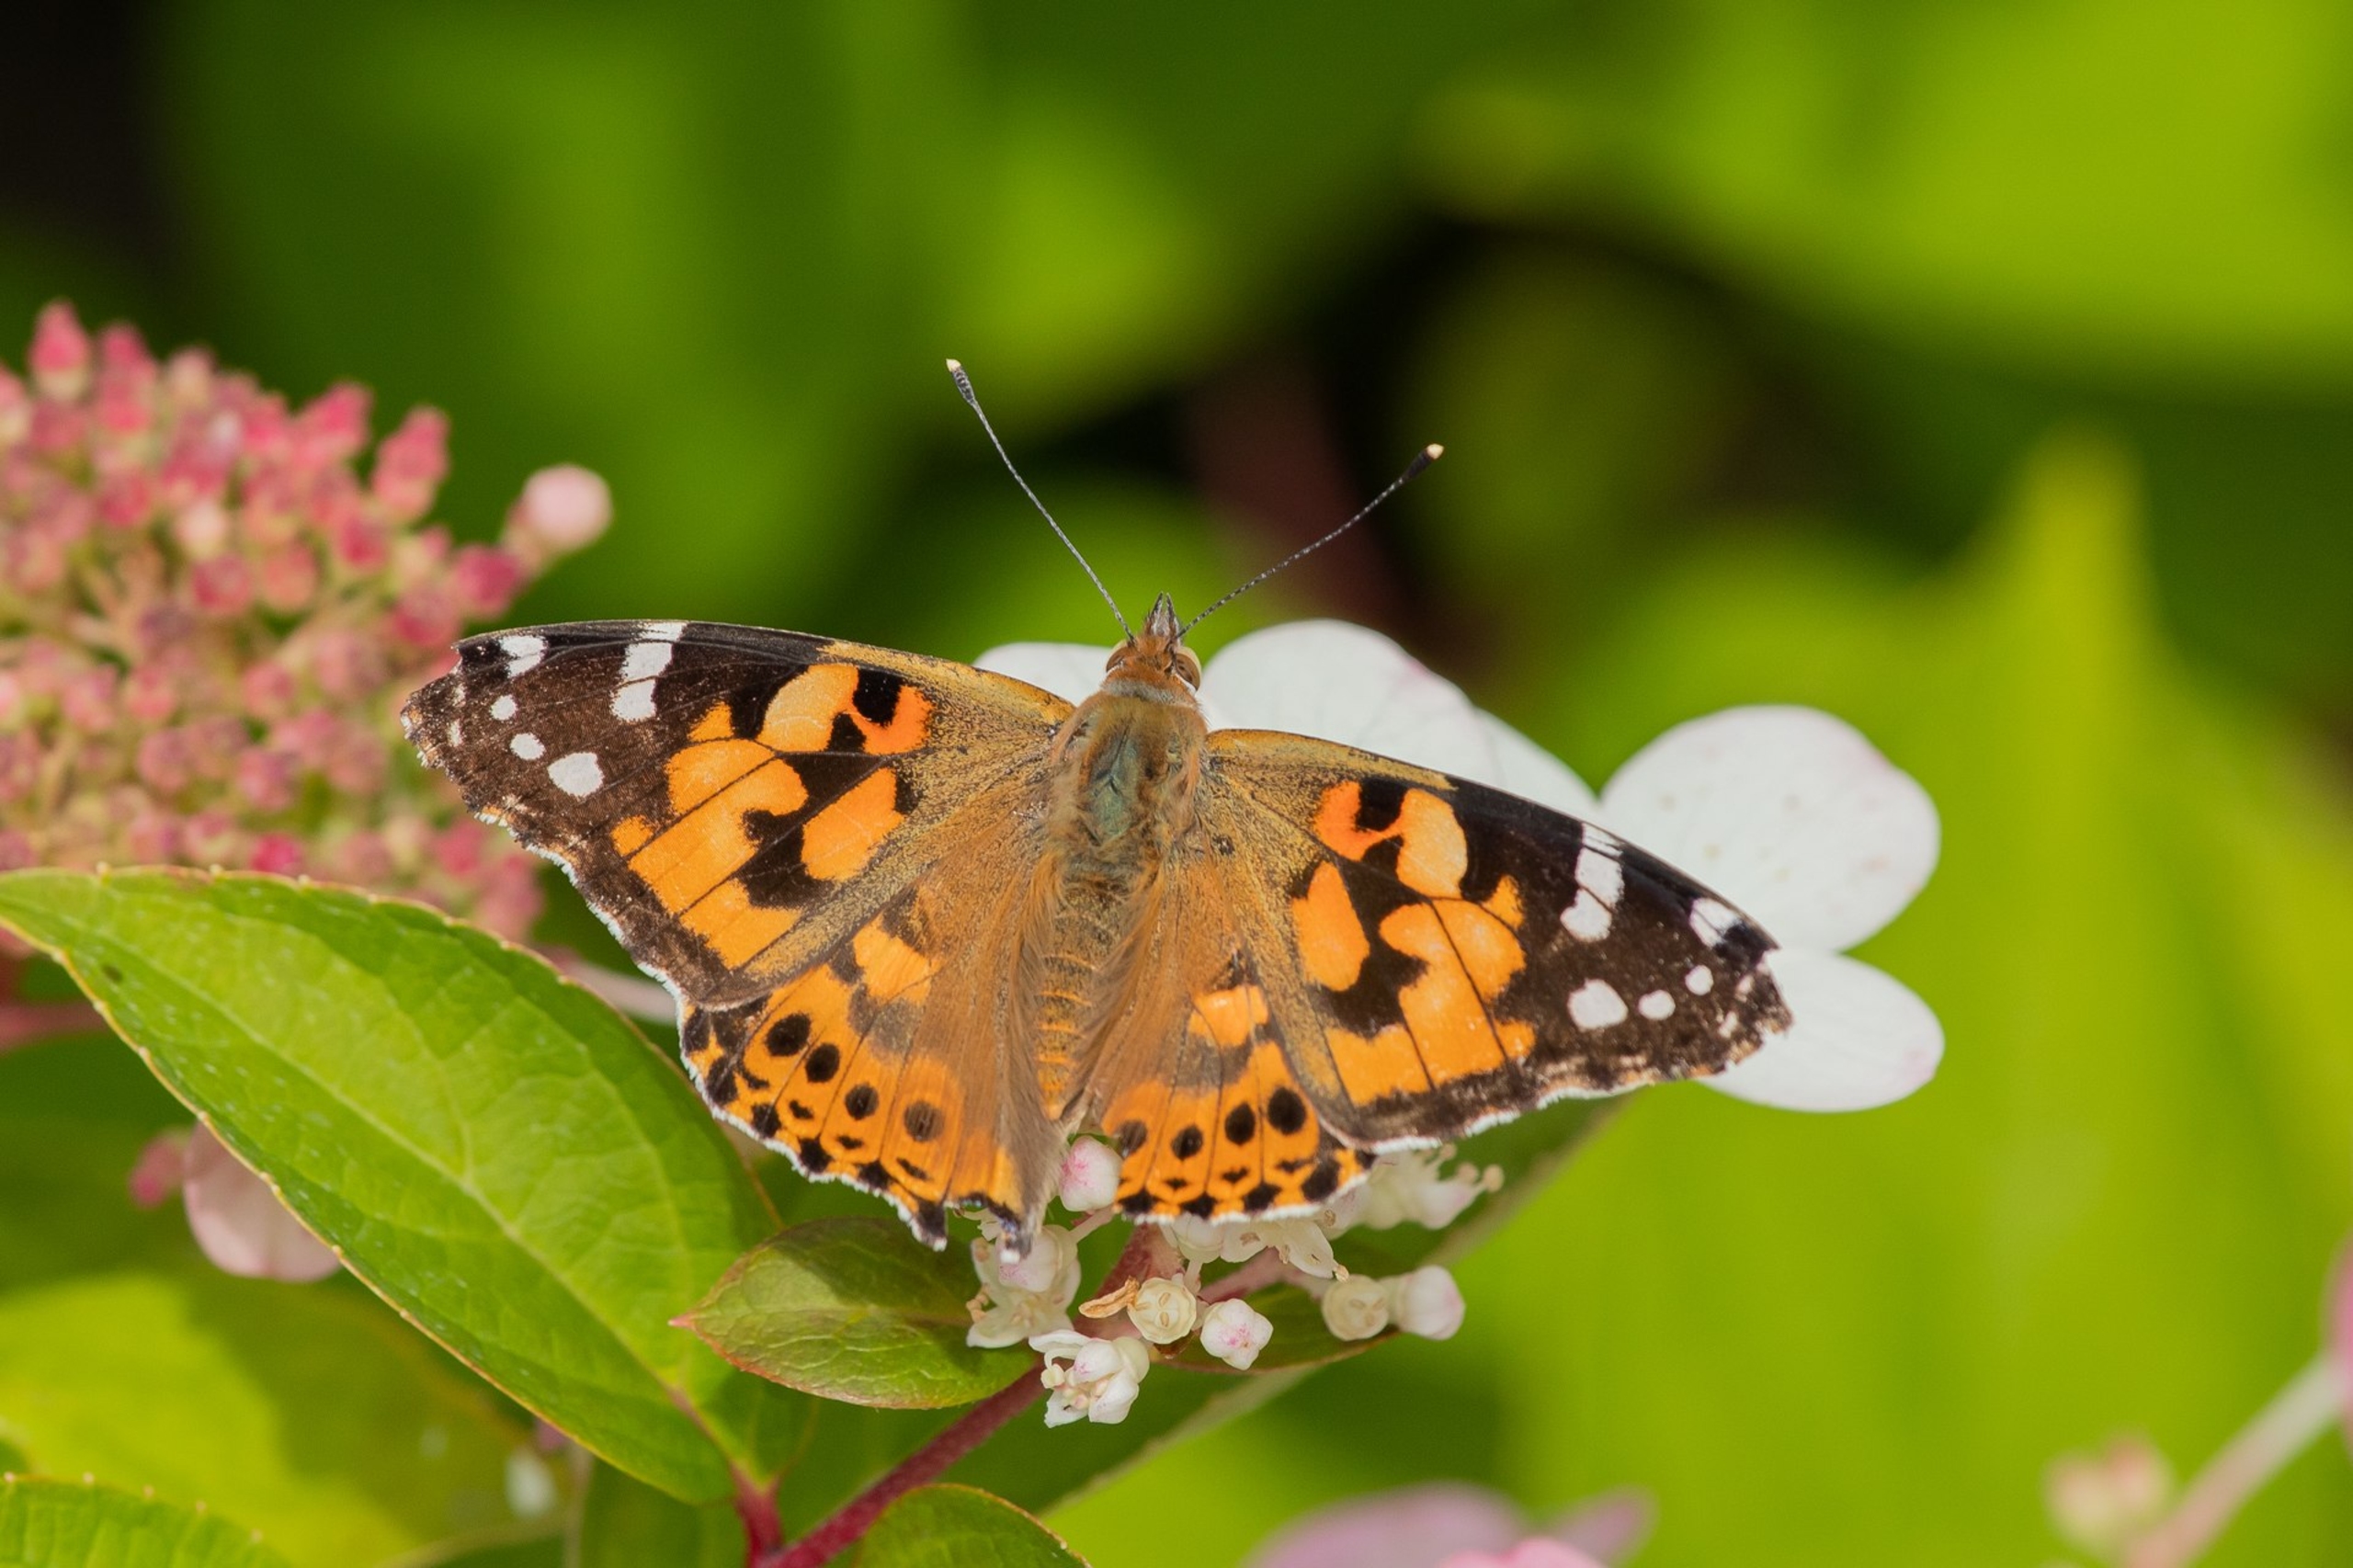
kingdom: Animalia
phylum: Arthropoda
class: Insecta
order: Lepidoptera
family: Nymphalidae
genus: Vanessa
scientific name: Vanessa cardui
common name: Tidselsommerfugl
